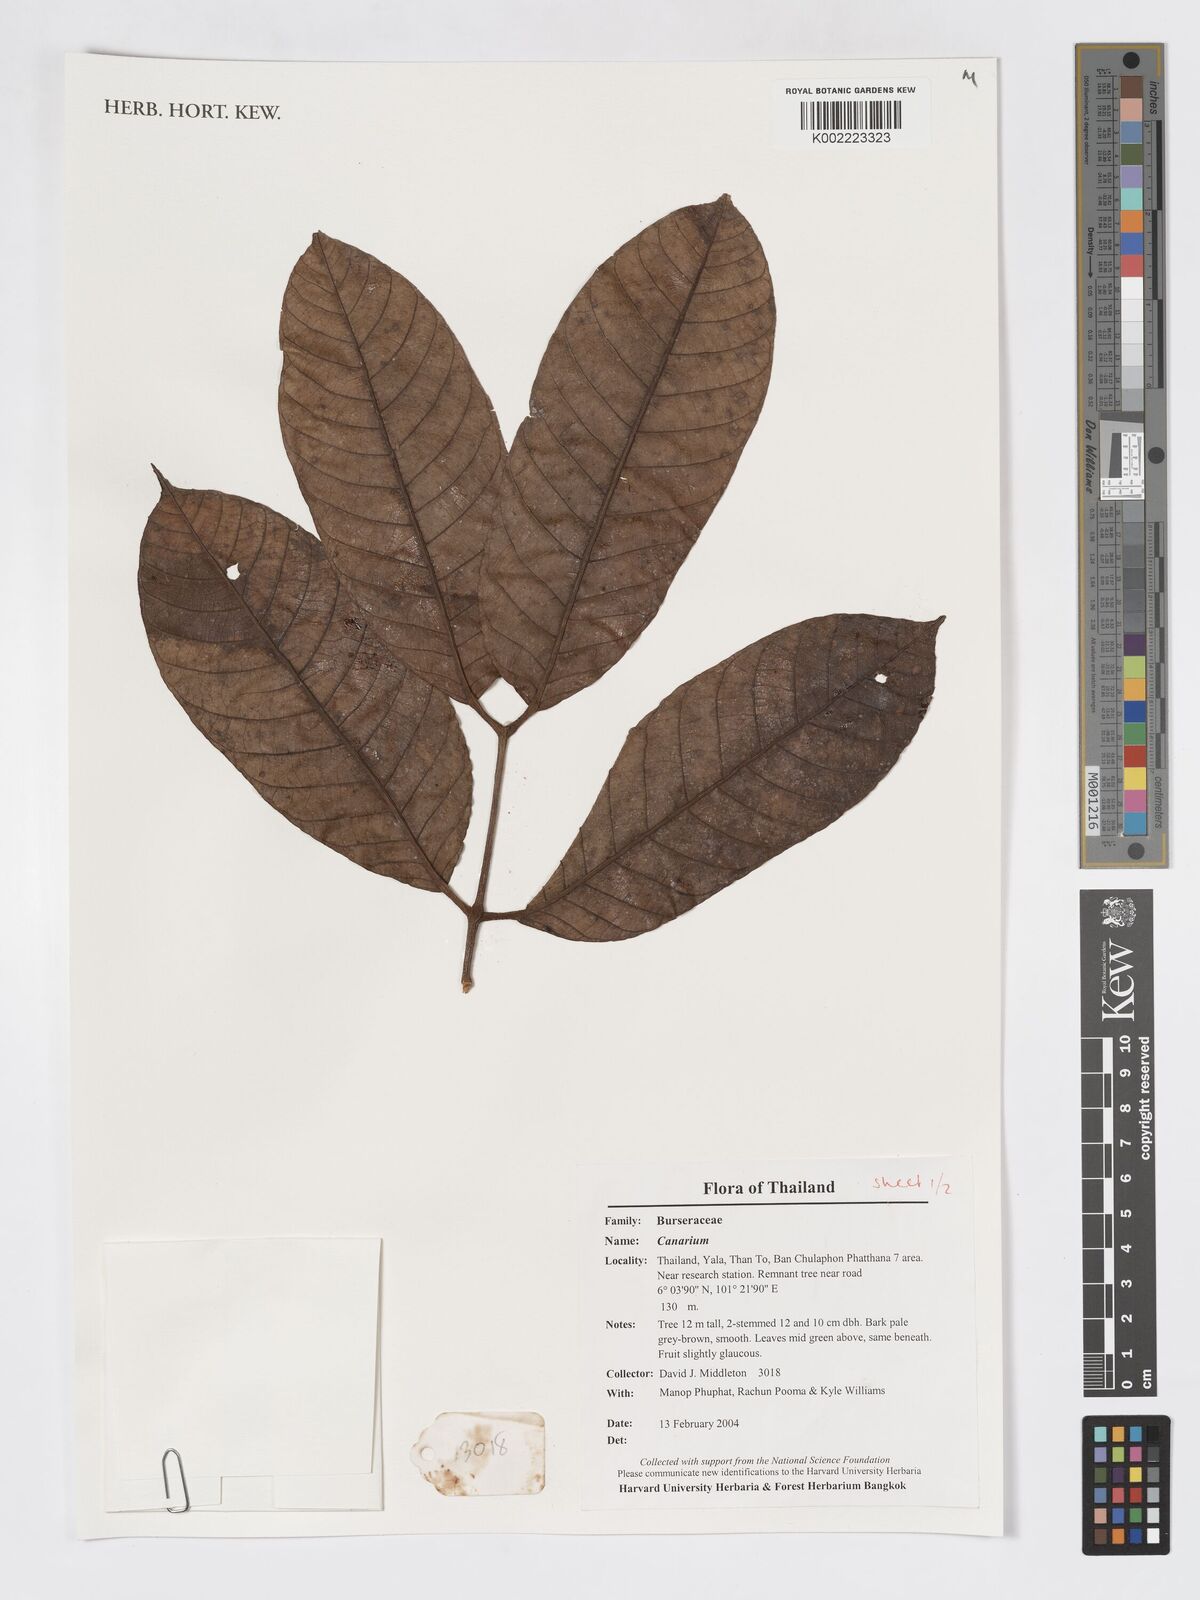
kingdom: Plantae
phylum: Tracheophyta
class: Magnoliopsida
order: Sapindales
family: Burseraceae
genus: Canarium
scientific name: Canarium
